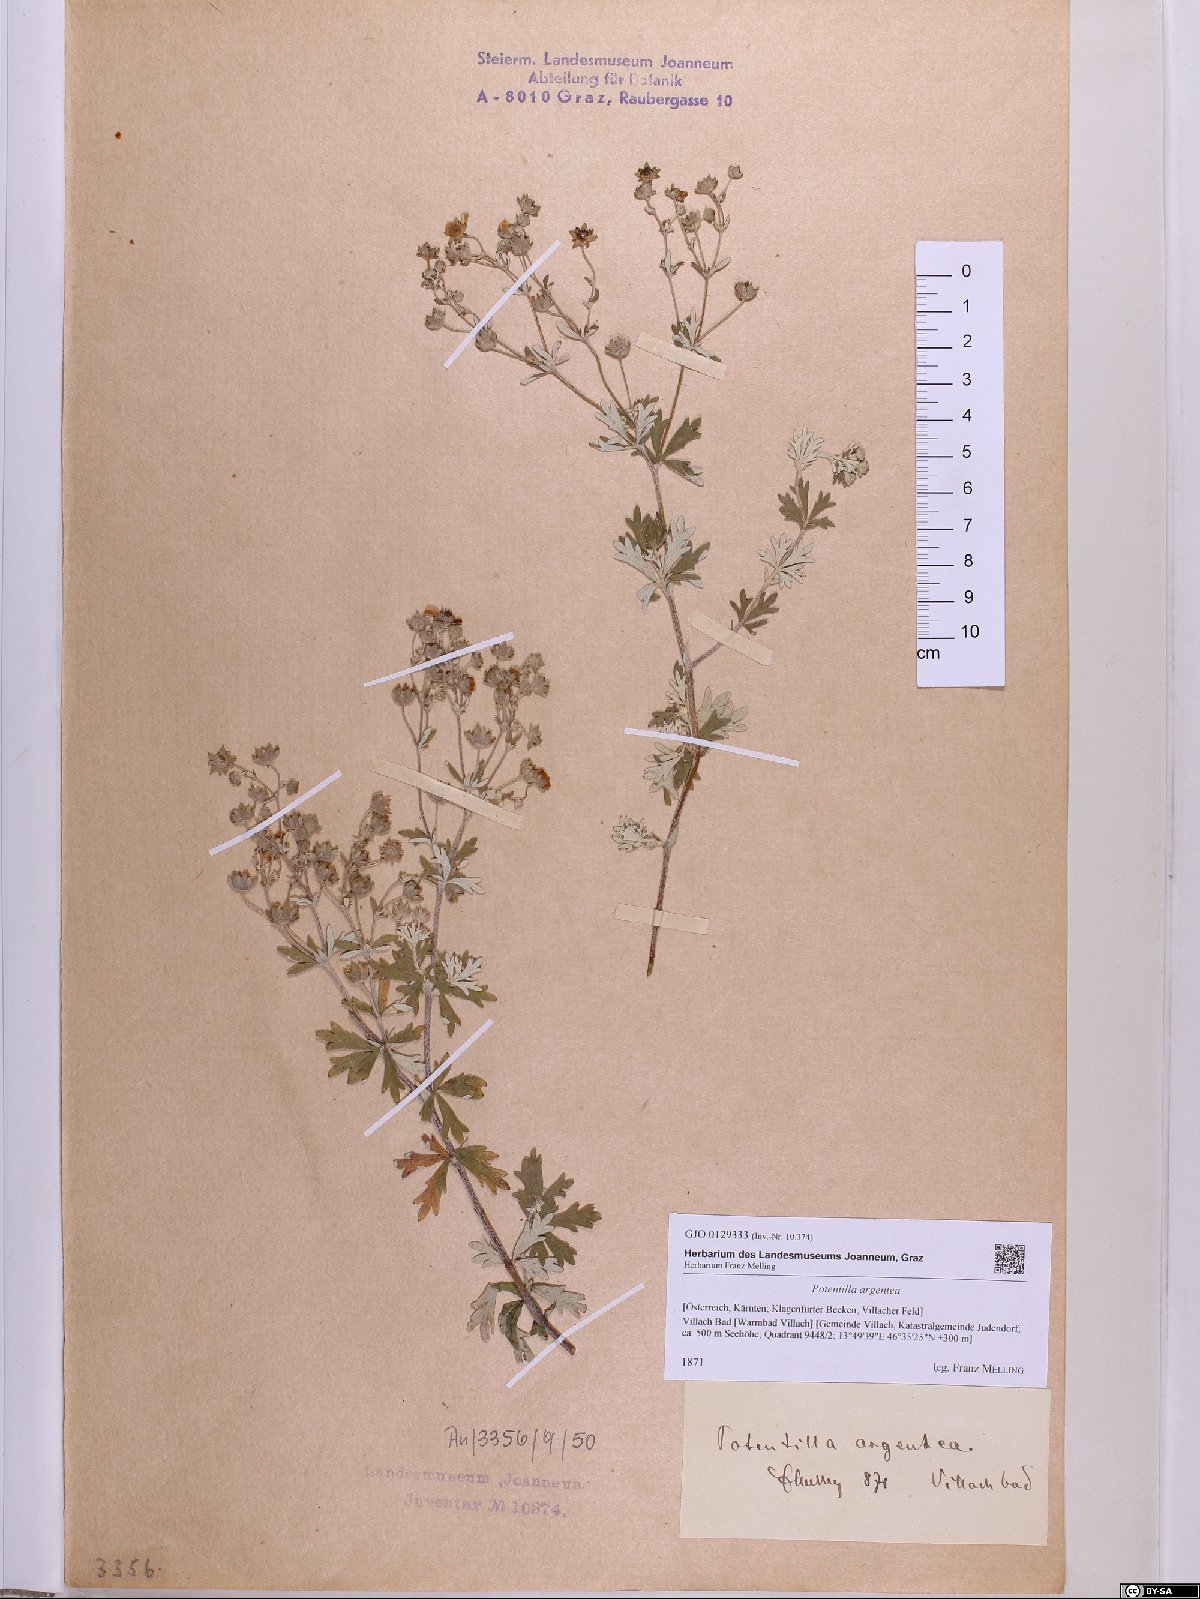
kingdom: Plantae
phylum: Tracheophyta
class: Magnoliopsida
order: Rosales
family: Rosaceae
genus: Potentilla
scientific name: Potentilla argentea
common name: Hoary cinquefoil
